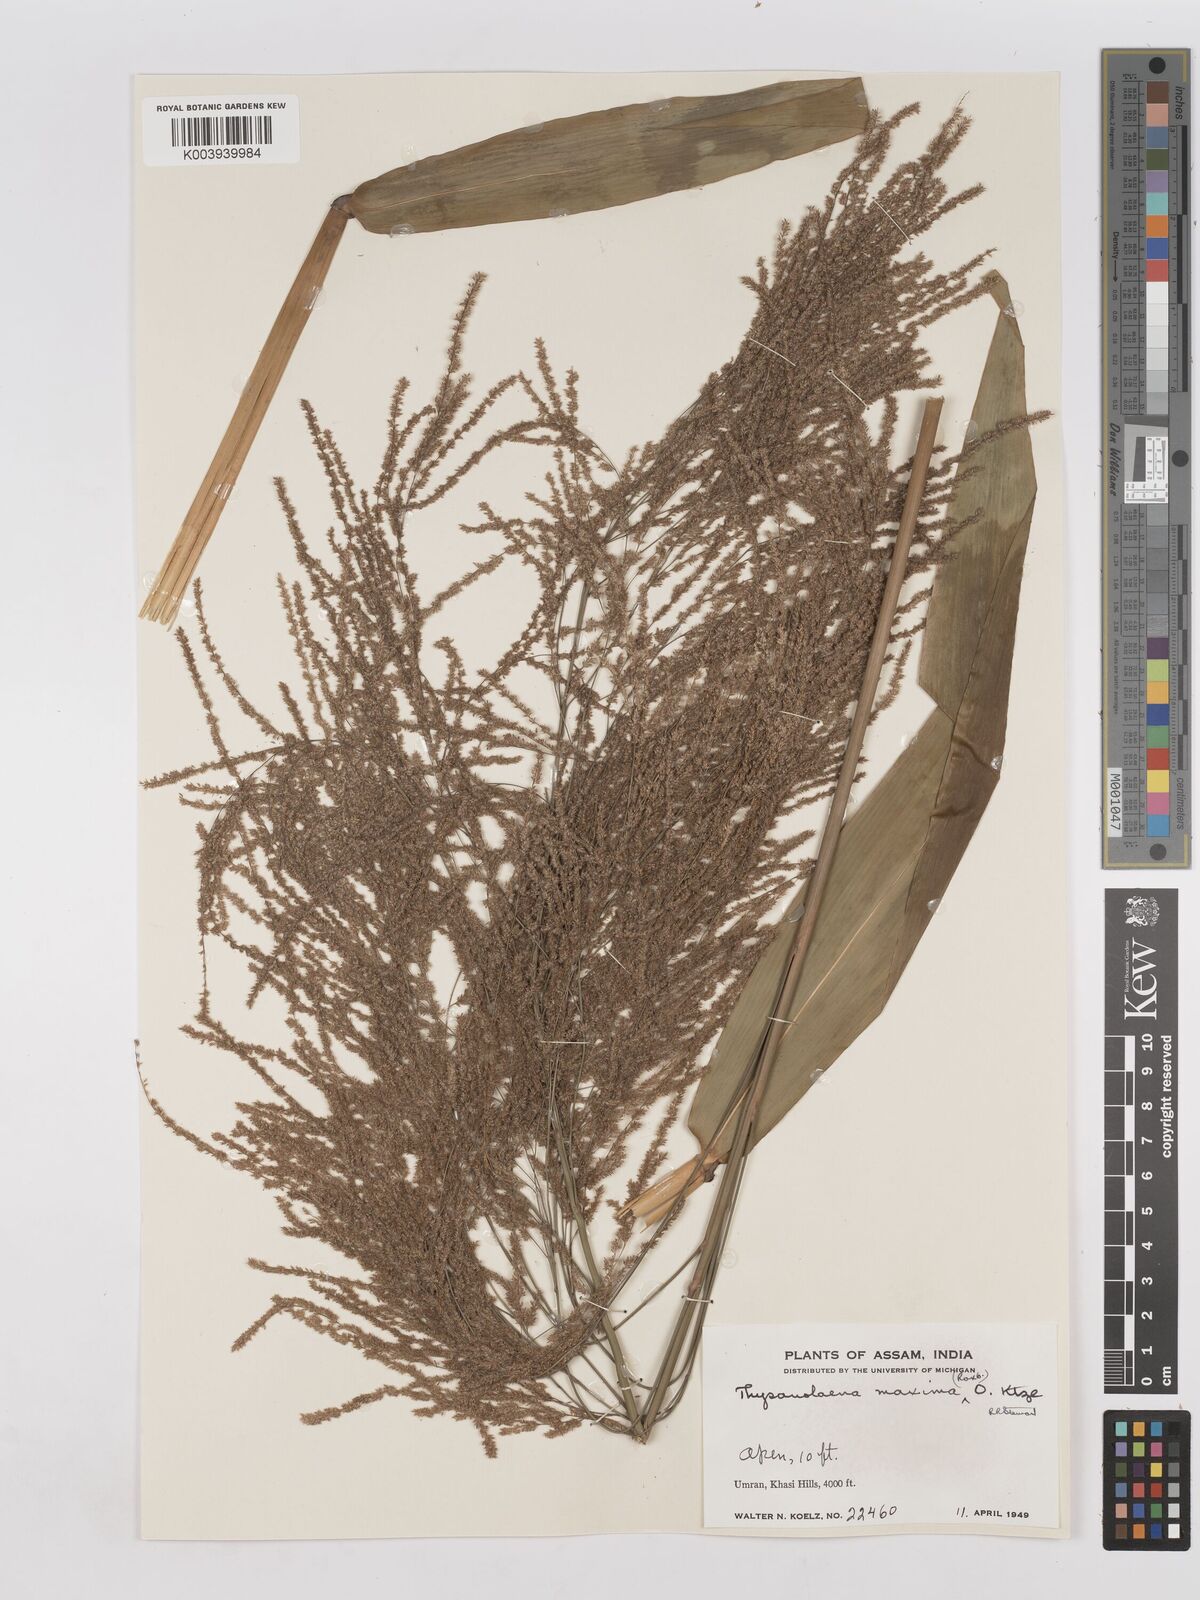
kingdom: Plantae
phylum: Tracheophyta
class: Liliopsida
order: Poales
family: Poaceae
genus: Thysanolaena
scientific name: Thysanolaena latifolia
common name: Tiger grass
